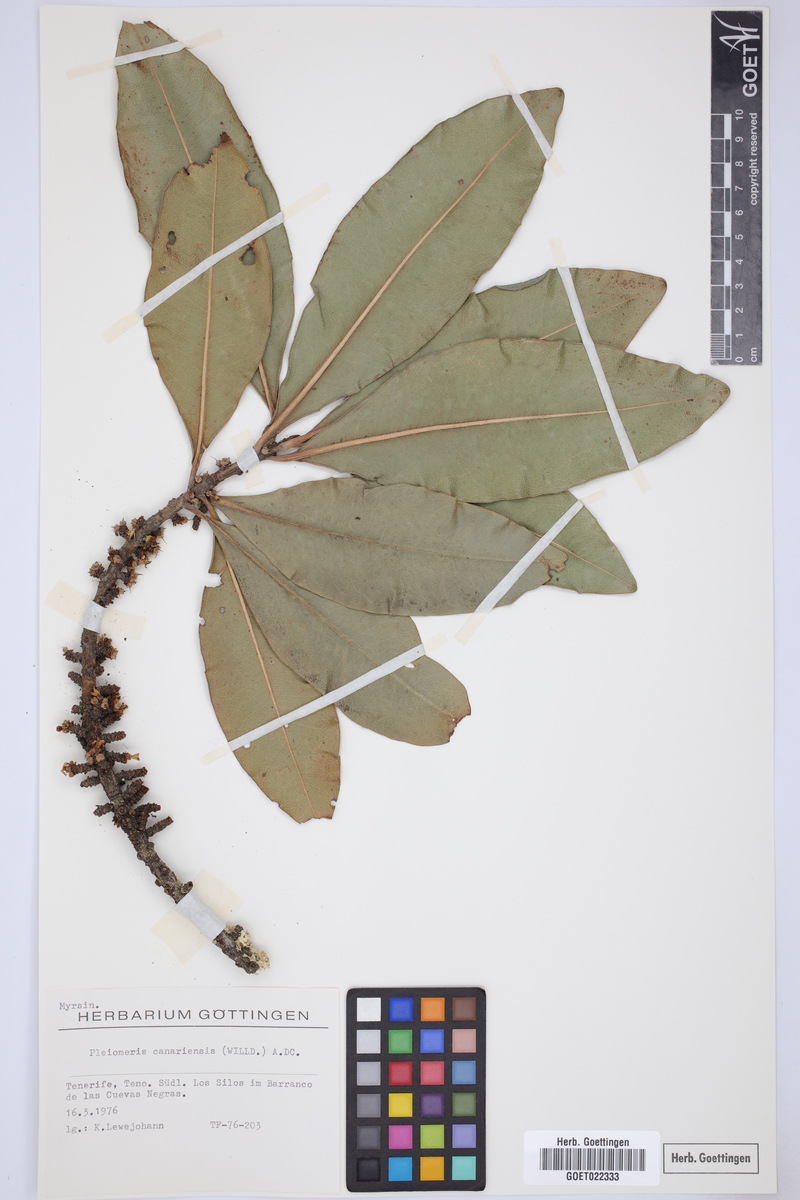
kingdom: Plantae
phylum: Tracheophyta
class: Magnoliopsida
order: Ericales
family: Primulaceae
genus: Pleiomeris
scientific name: Pleiomeris canariensis
